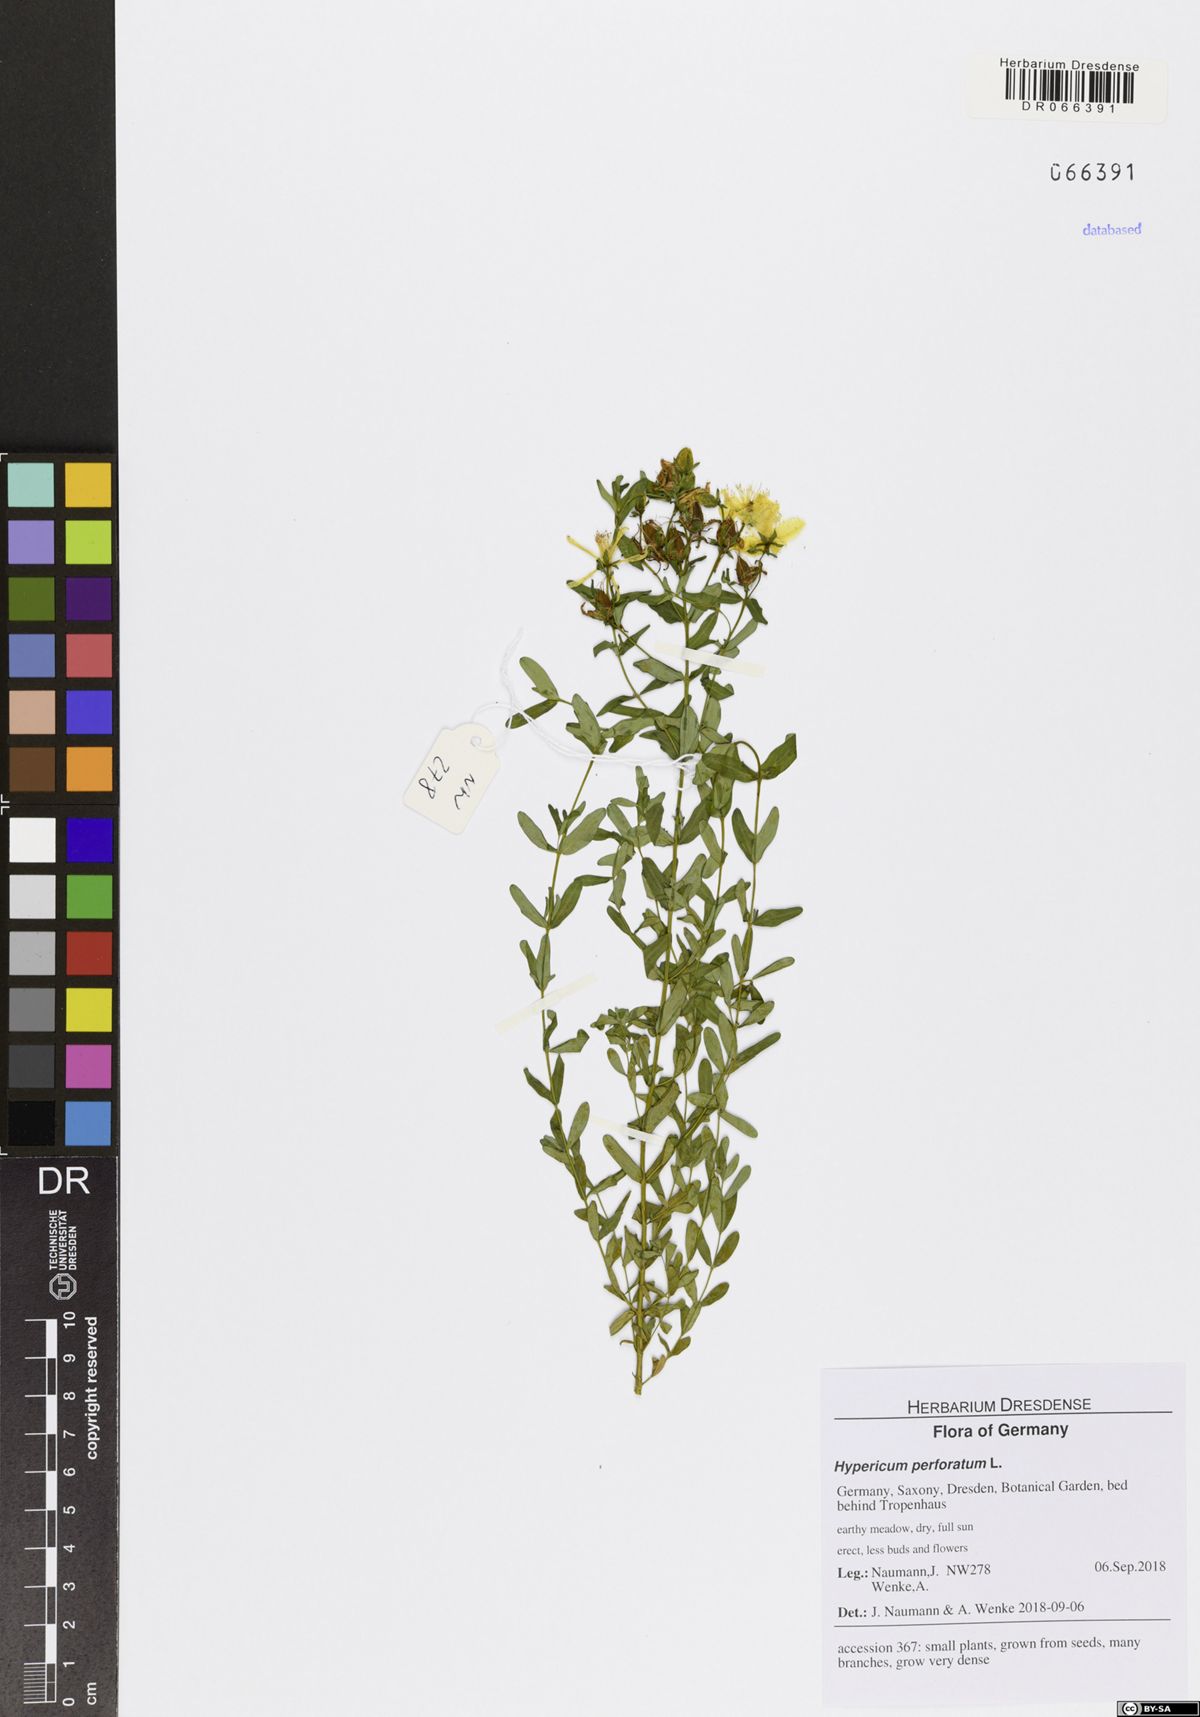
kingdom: Plantae
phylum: Tracheophyta
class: Magnoliopsida
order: Malpighiales
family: Hypericaceae
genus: Hypericum
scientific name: Hypericum perforatum
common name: Common st. johnswort
